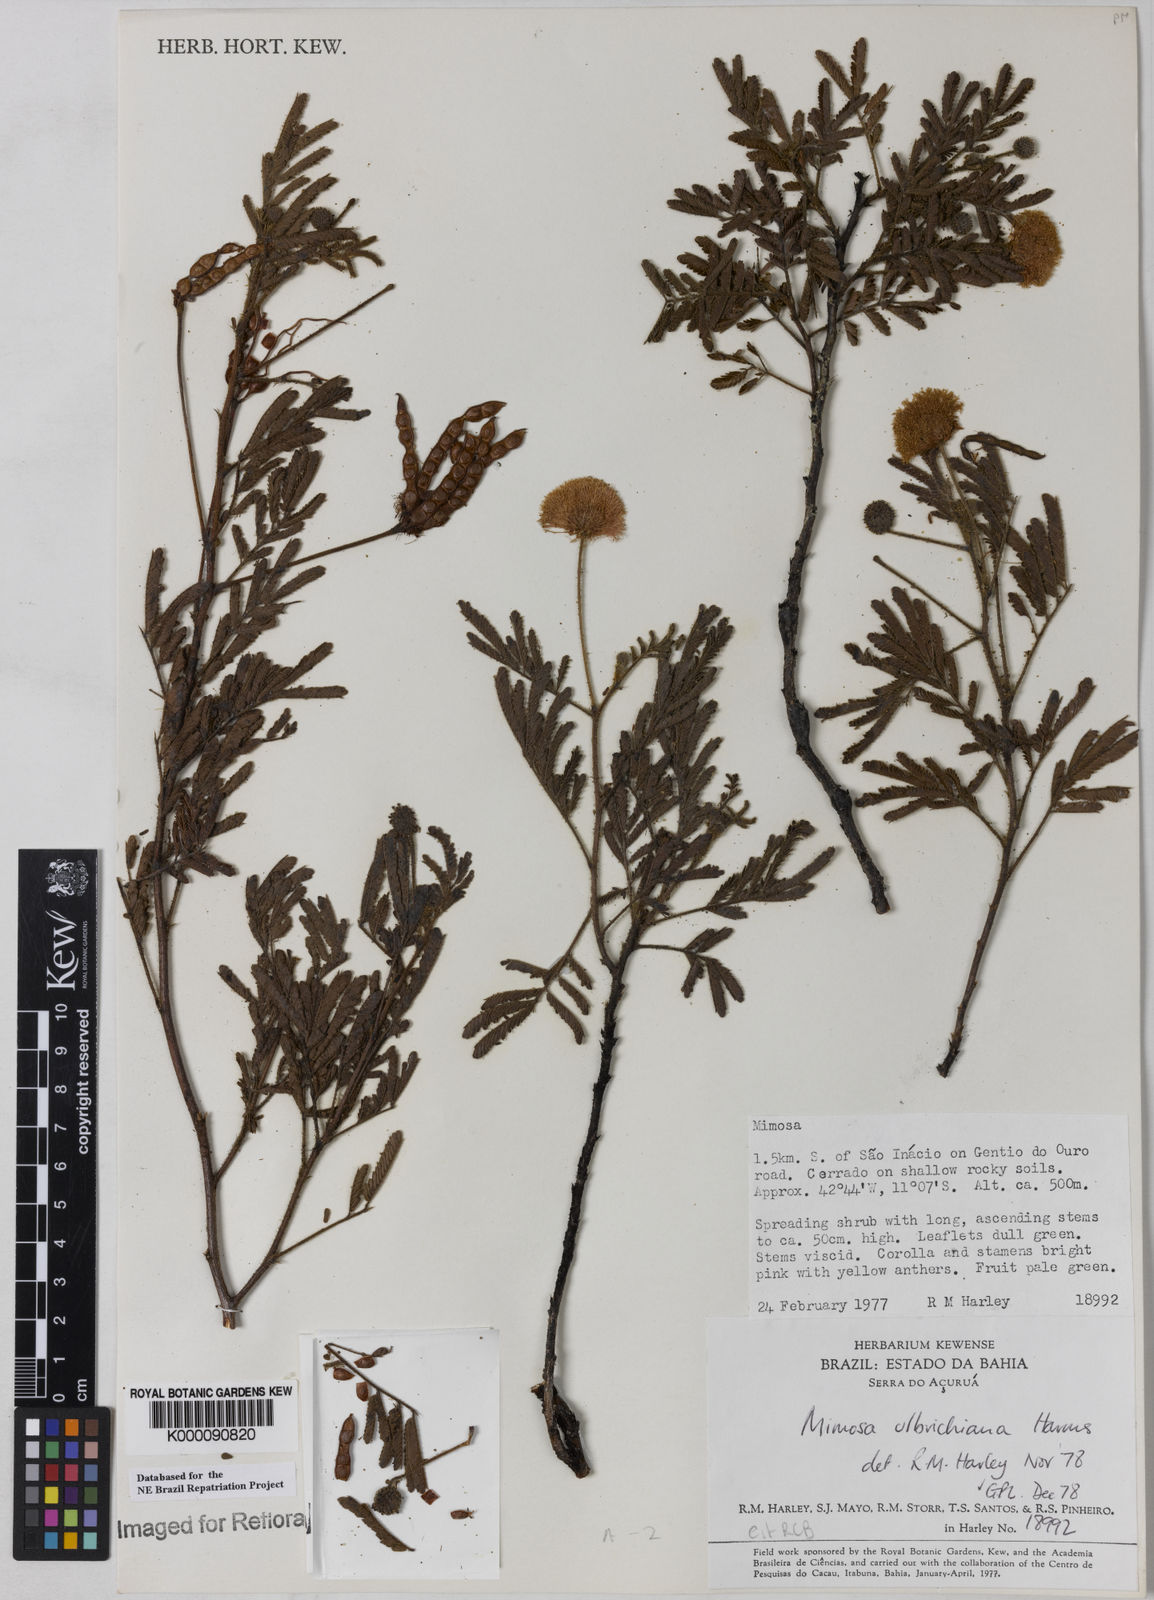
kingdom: Plantae
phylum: Tracheophyta
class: Magnoliopsida
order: Fabales
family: Fabaceae
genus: Mimosa
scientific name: Mimosa ulbrichiana
